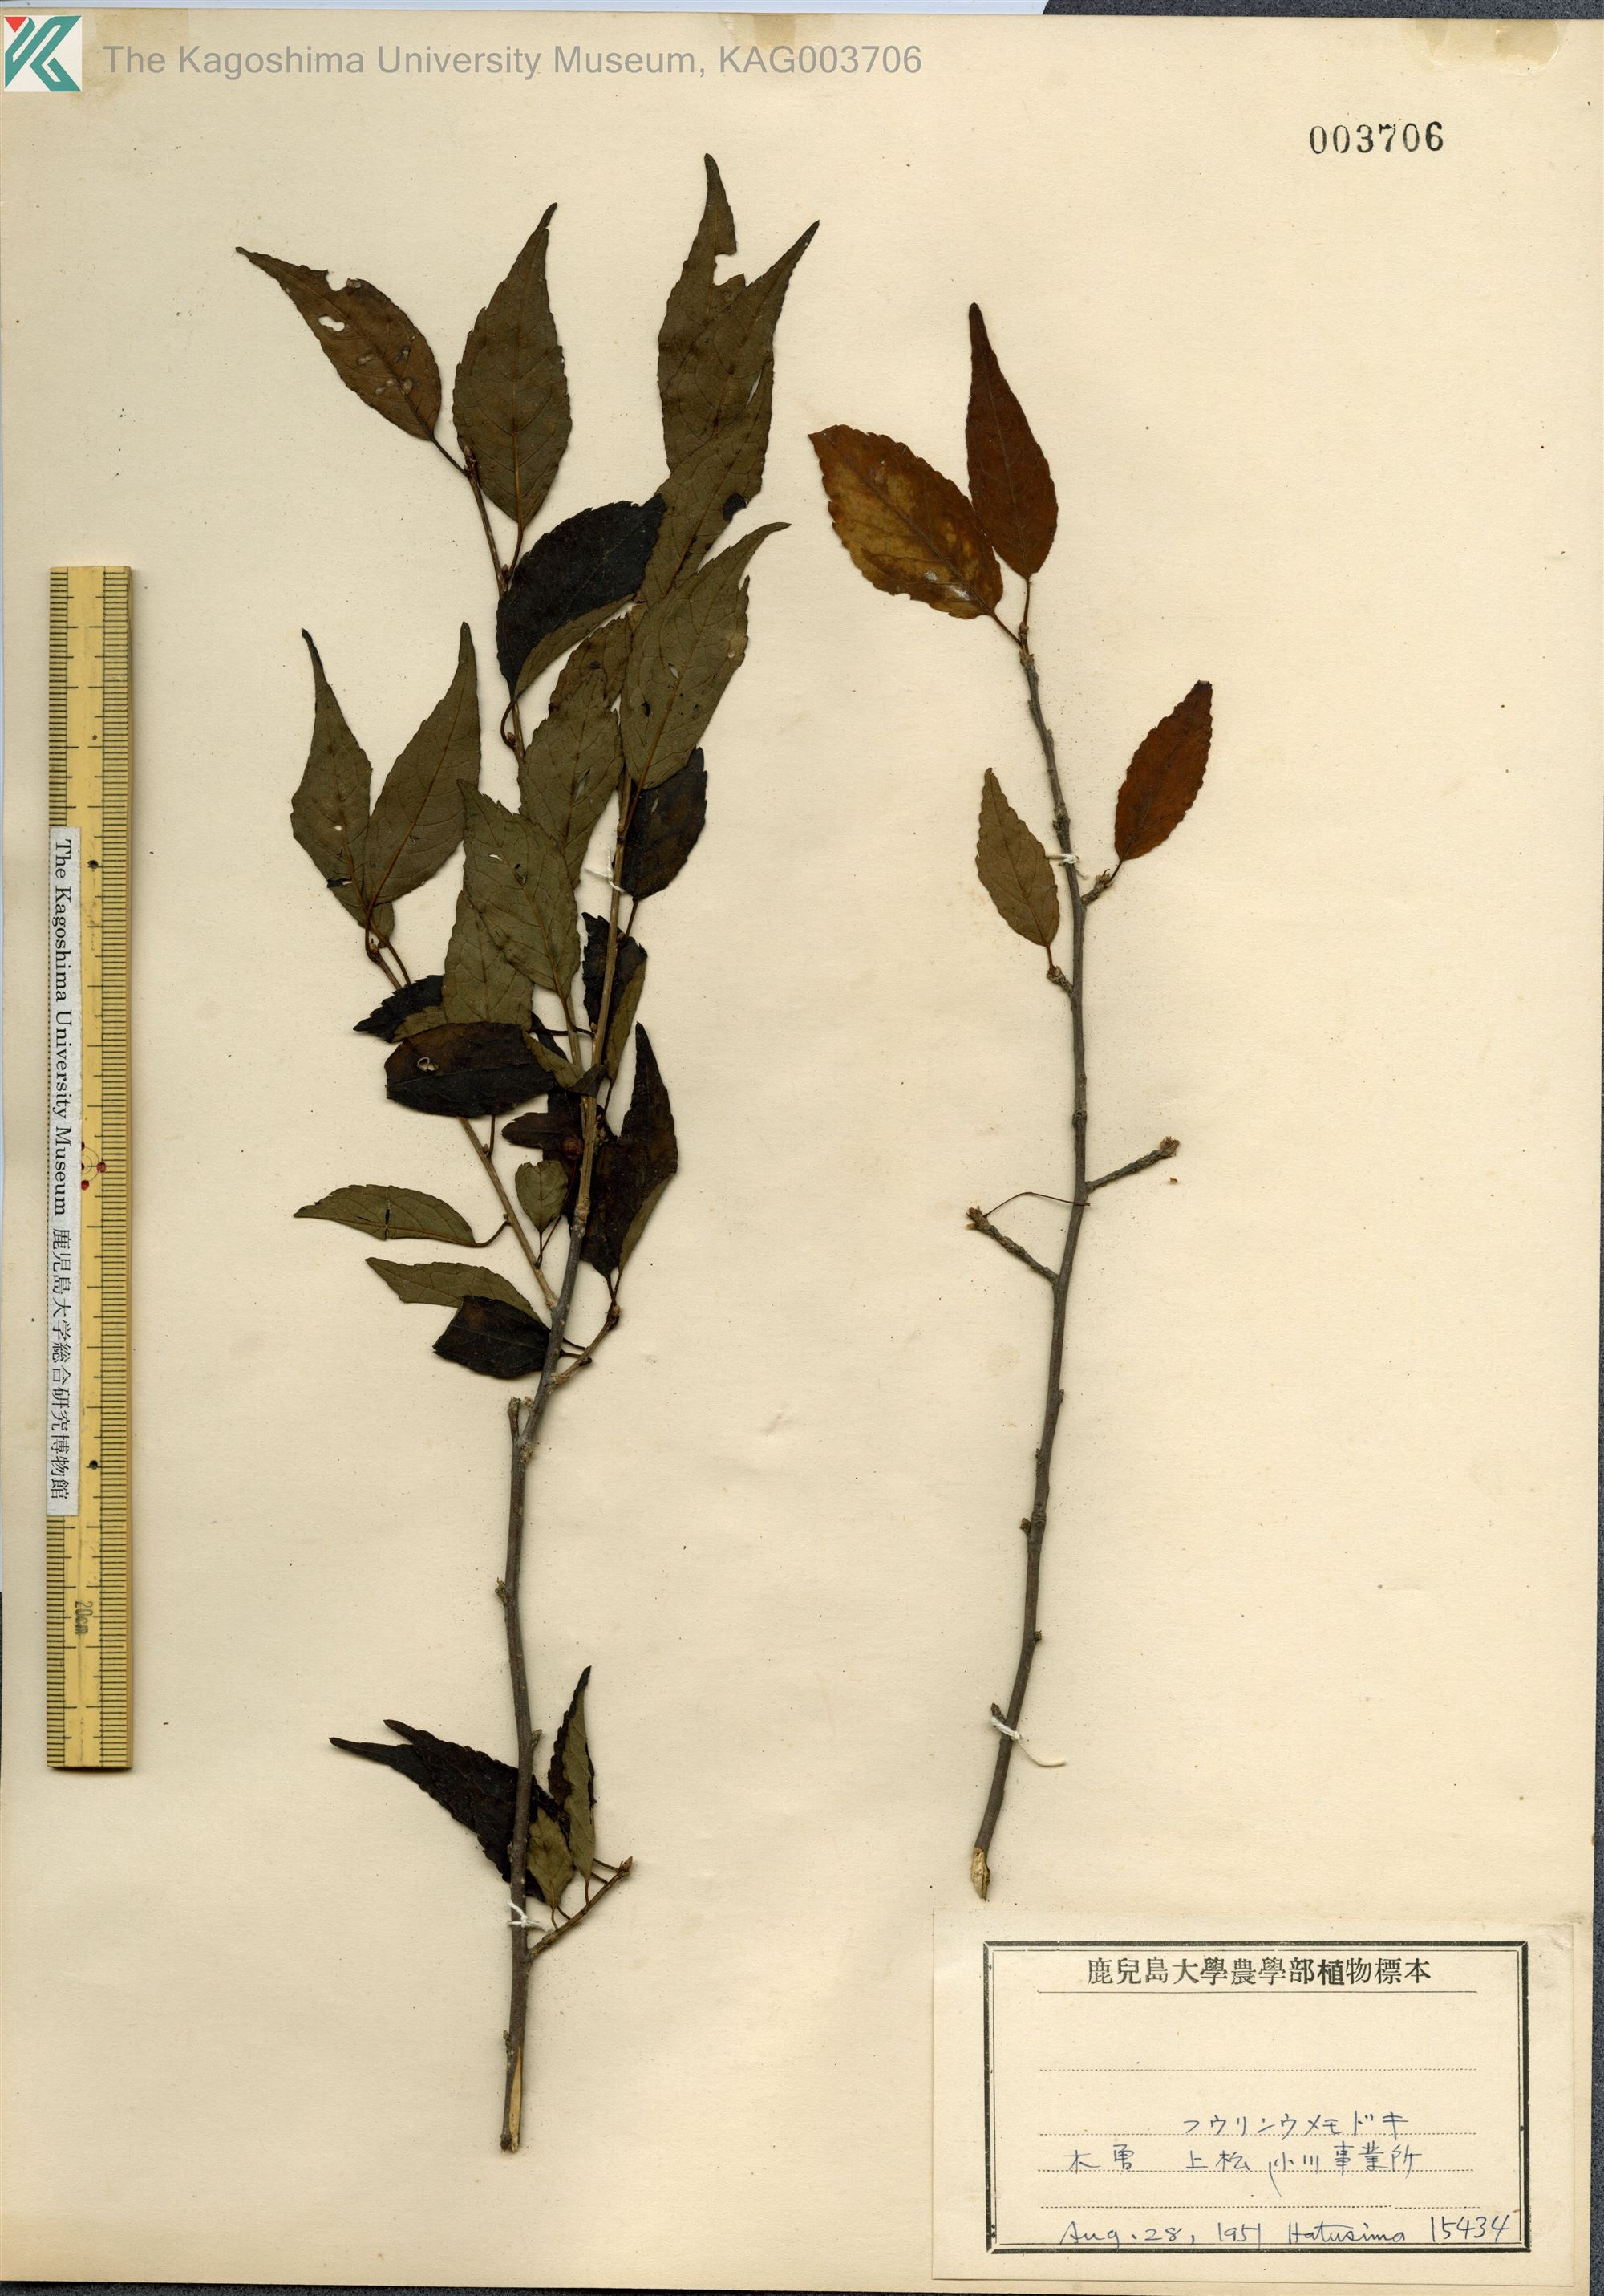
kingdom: Plantae
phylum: Tracheophyta
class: Magnoliopsida
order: Aquifoliales
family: Aquifoliaceae
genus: Ilex
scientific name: Ilex geniculata
